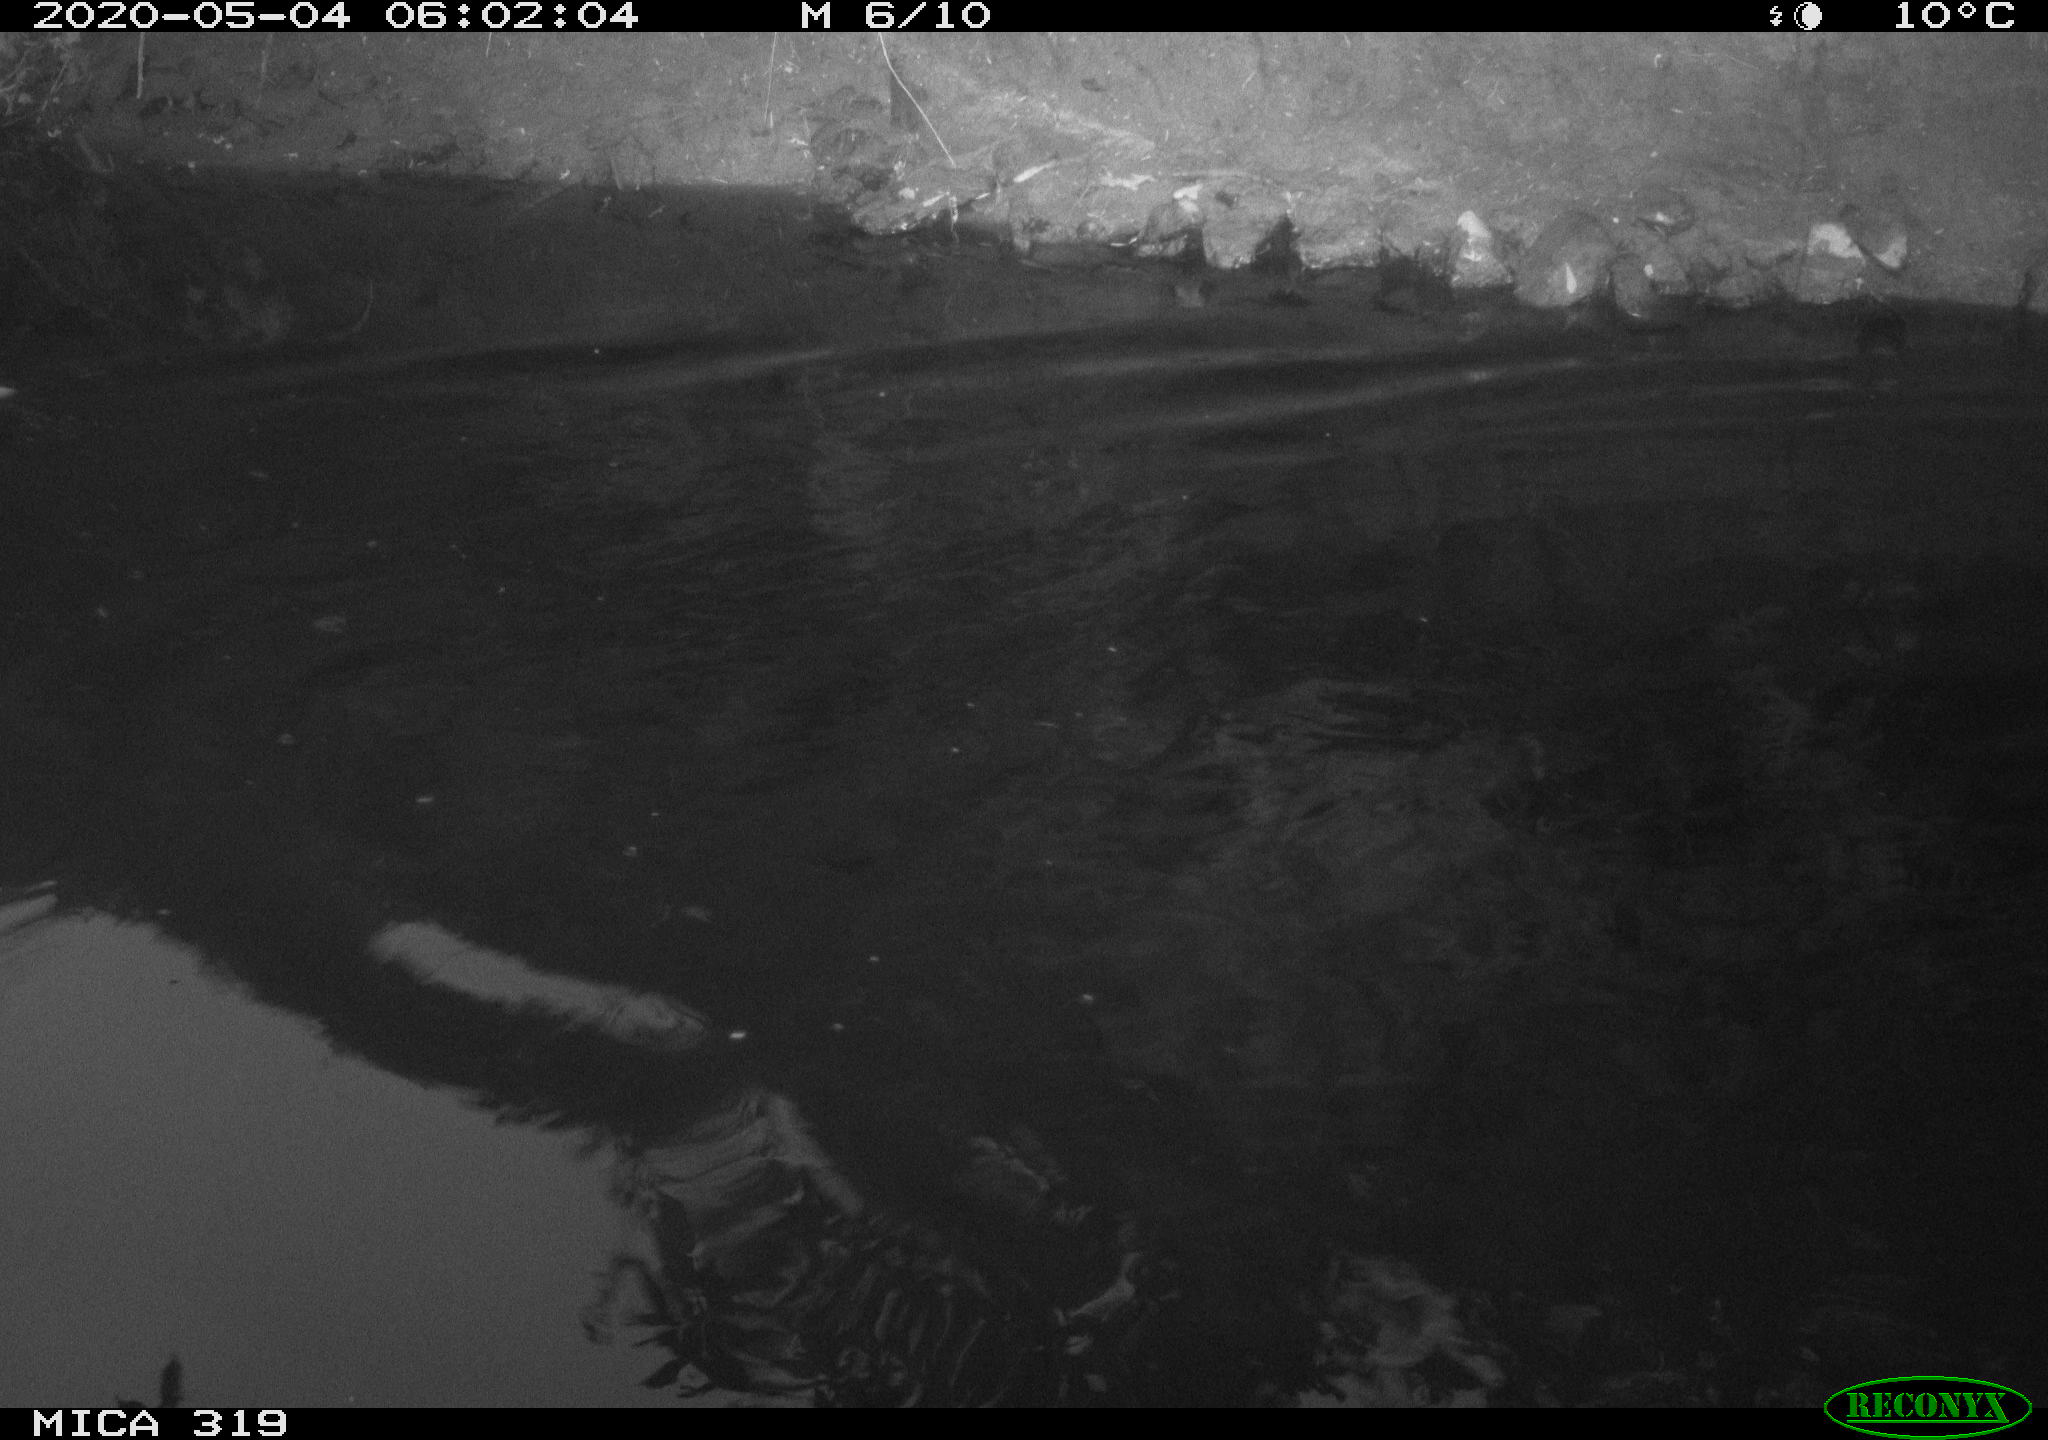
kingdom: Animalia
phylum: Chordata
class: Aves
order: Anseriformes
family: Anatidae
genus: Anas
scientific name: Anas platyrhynchos
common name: Mallard
